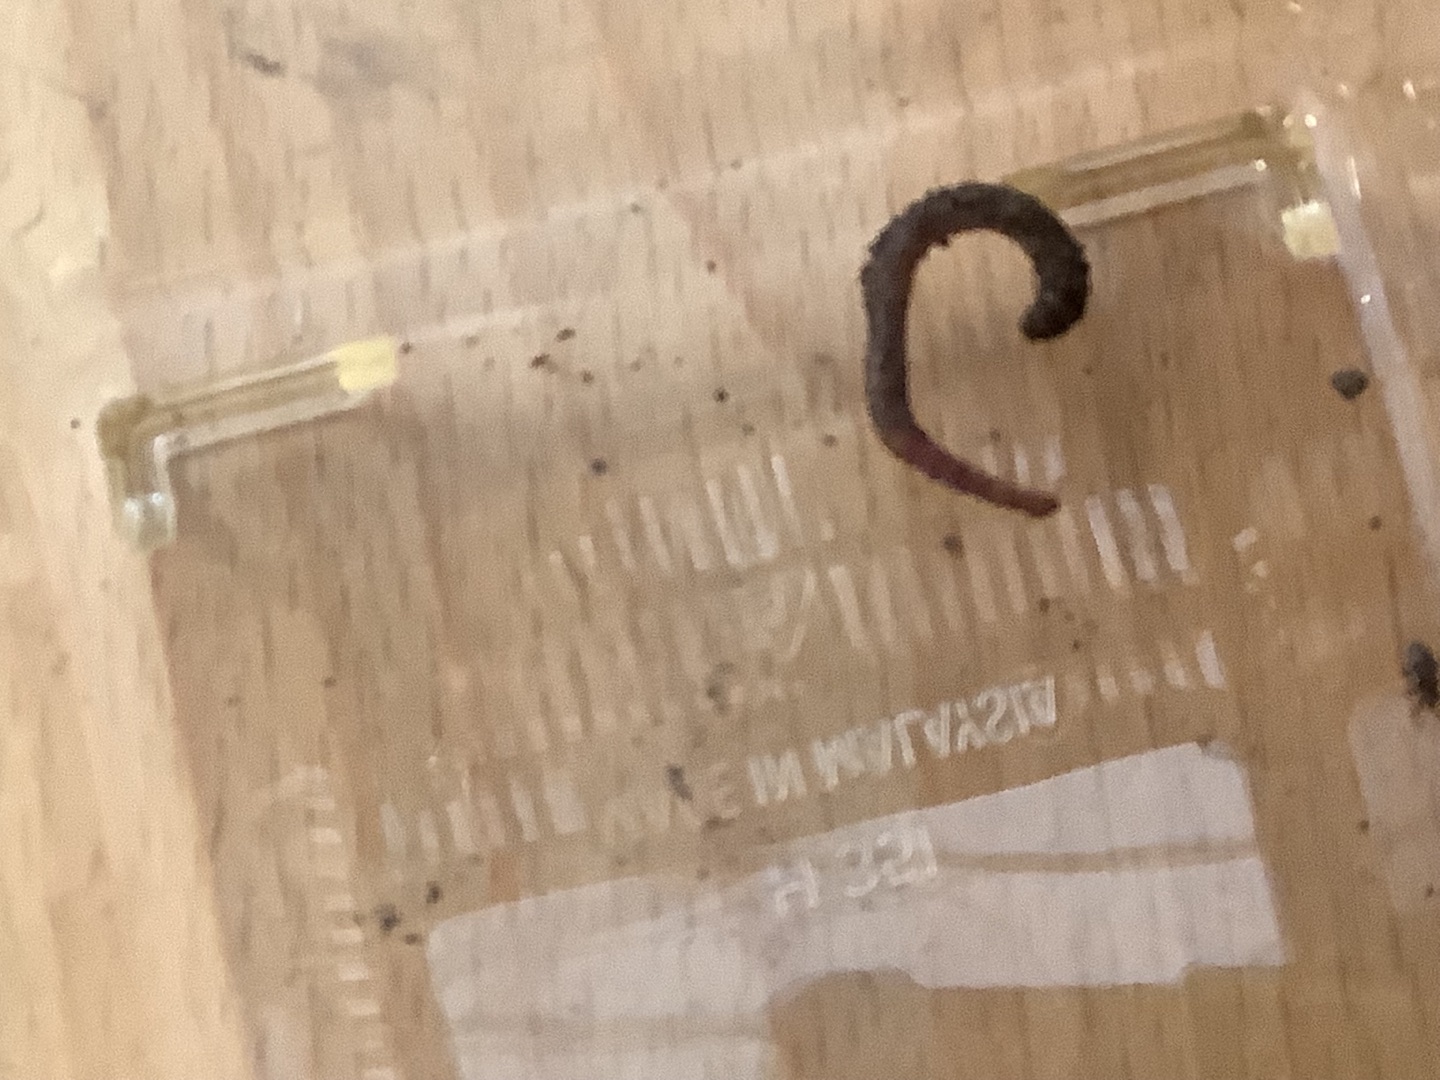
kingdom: Animalia
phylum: Annelida
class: Clitellata
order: Crassiclitellata
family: Lumbricidae
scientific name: Lumbricidae
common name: Regnorme
